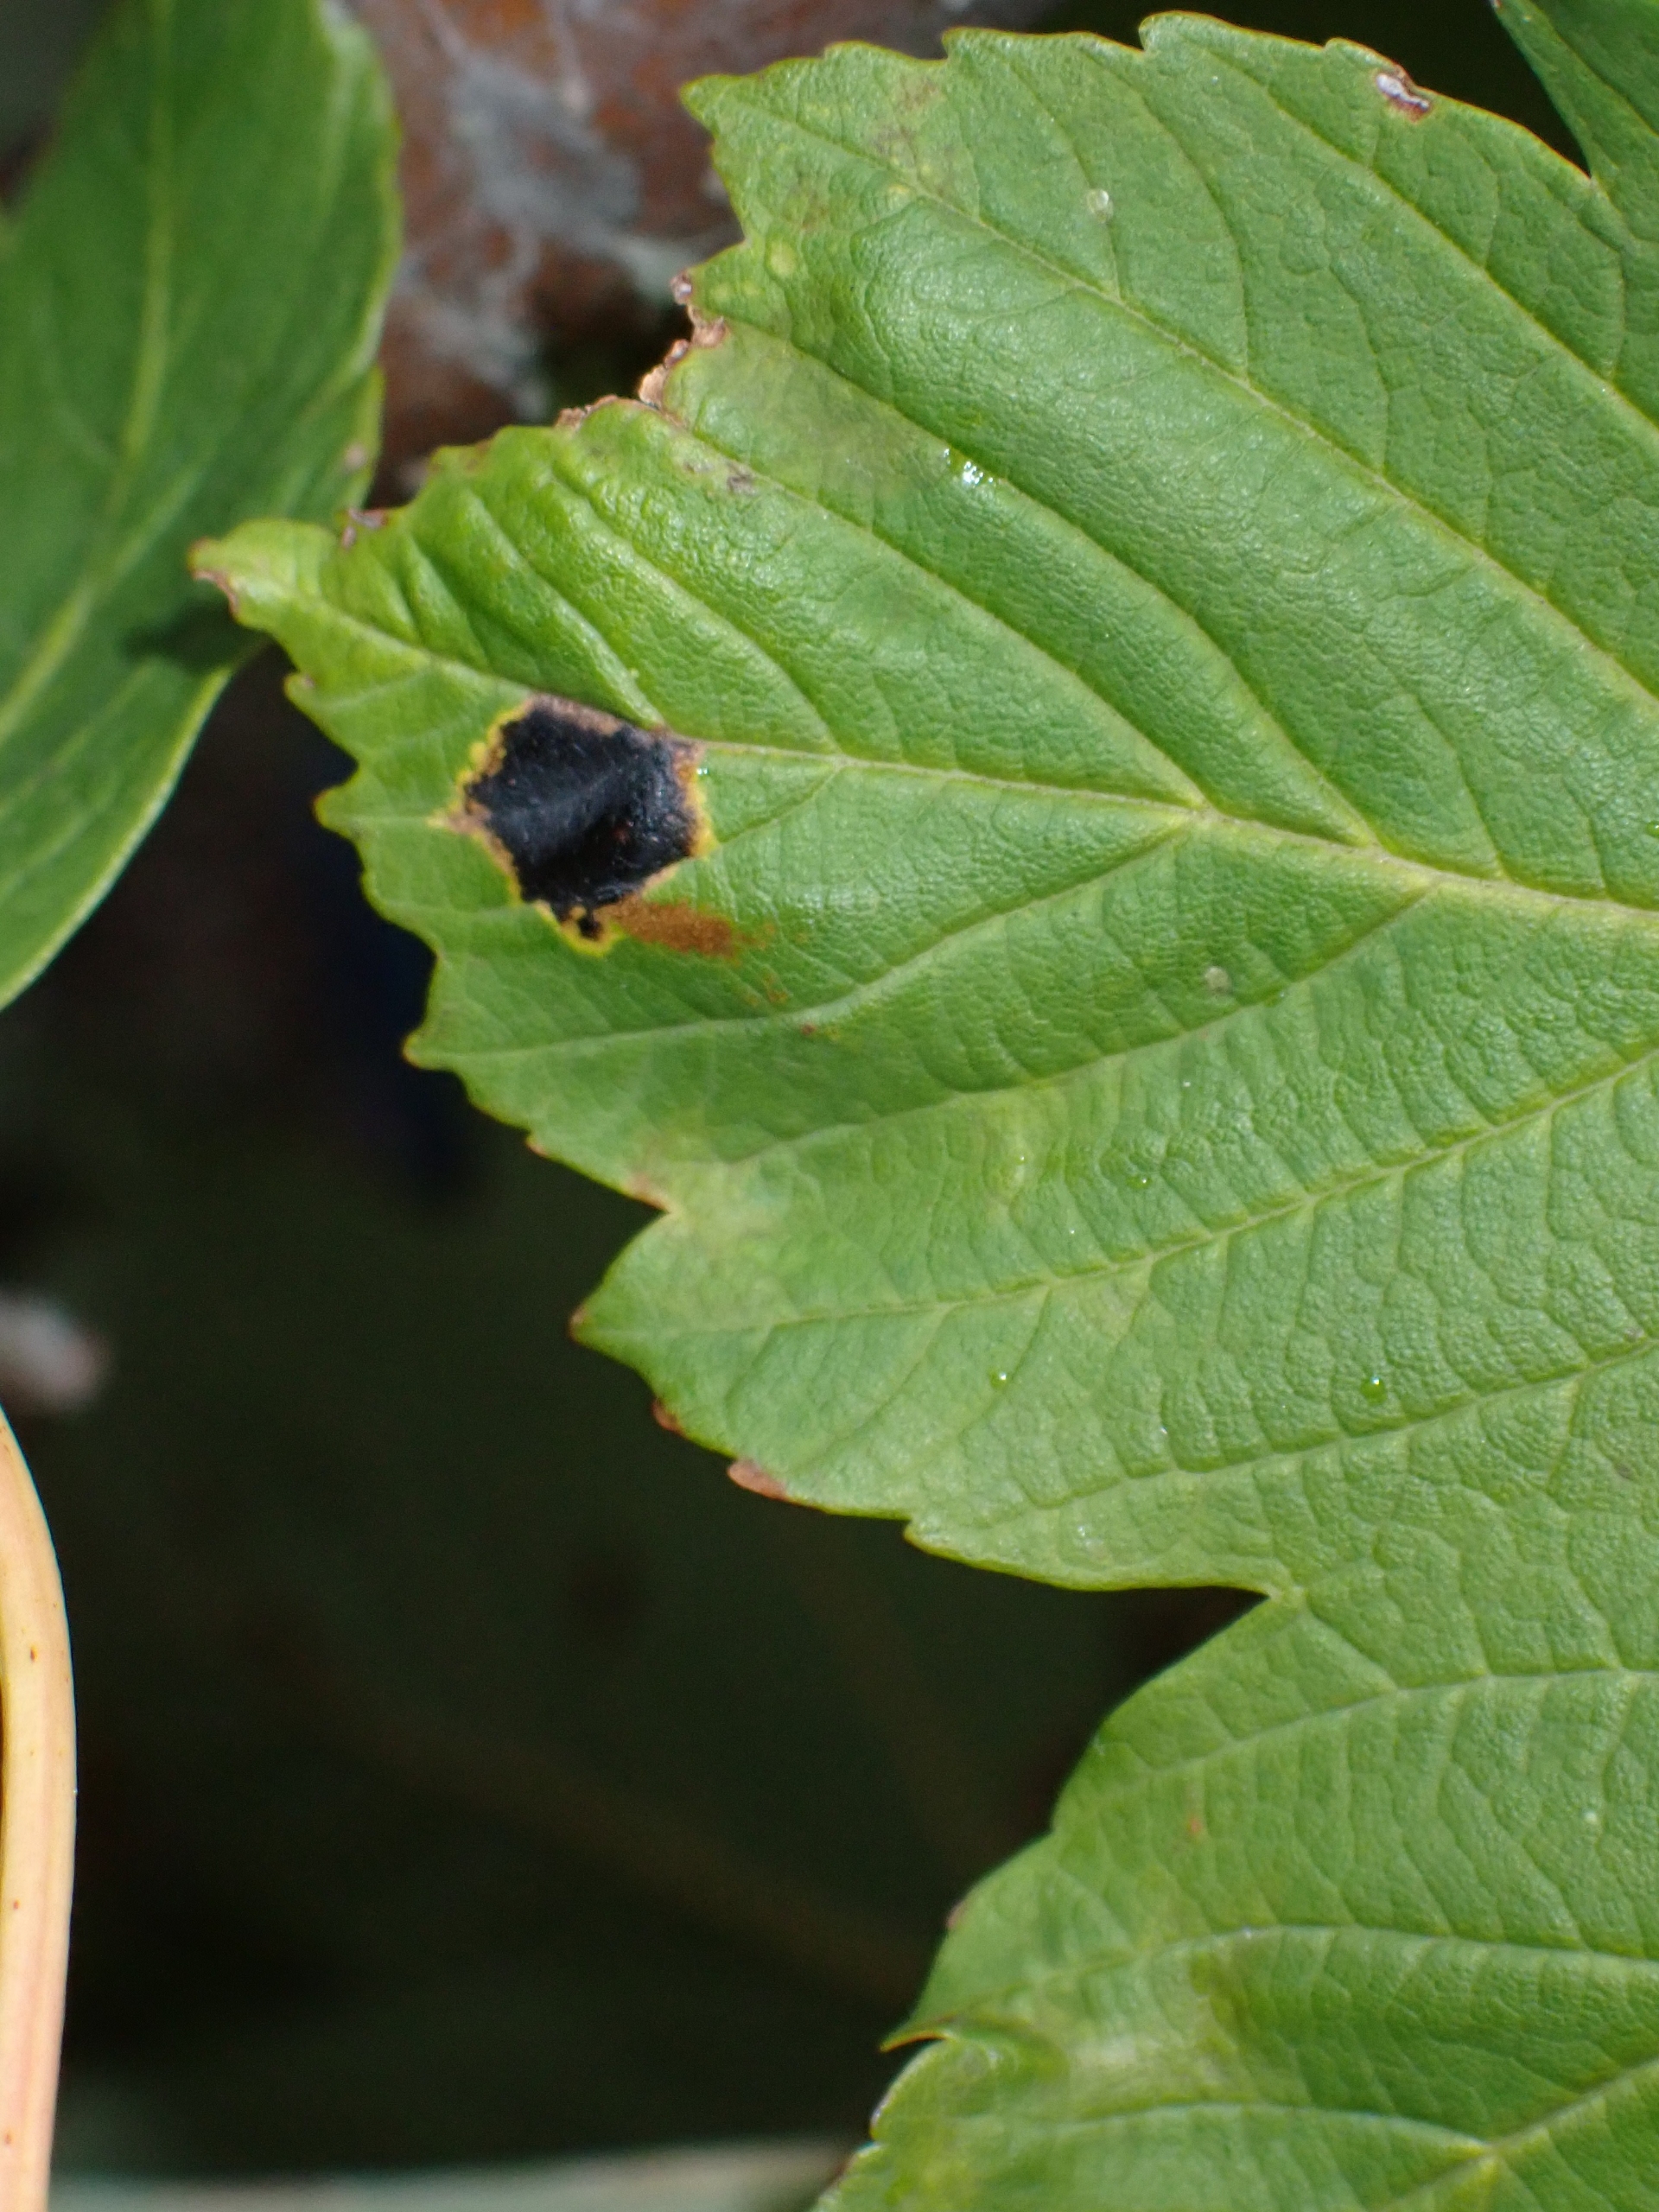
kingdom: Fungi
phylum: Ascomycota
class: Leotiomycetes
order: Rhytismatales
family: Rhytismataceae
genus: Rhytisma
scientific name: Rhytisma acerinum
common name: Ahorn-rynkeplet
